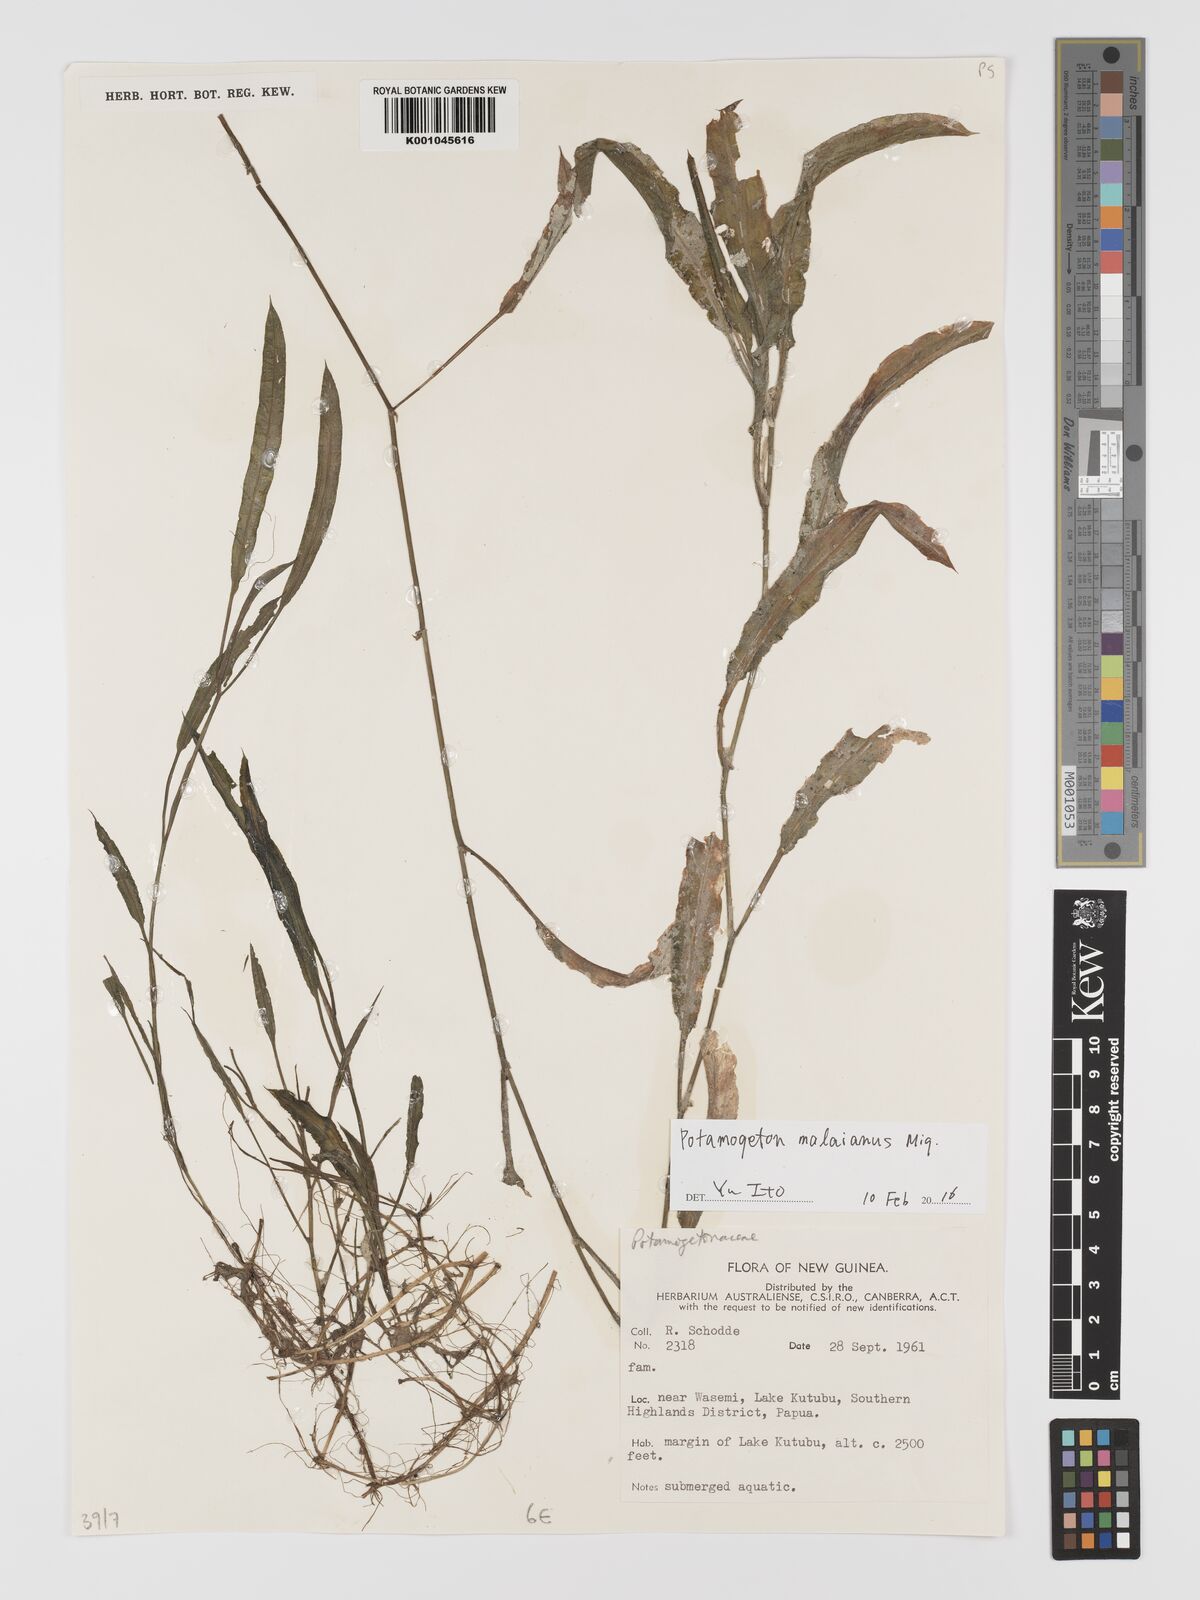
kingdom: Plantae
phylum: Tracheophyta
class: Liliopsida
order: Alismatales
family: Potamogetonaceae
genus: Potamogeton
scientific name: Potamogeton nodosus
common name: Loddon pondweed
